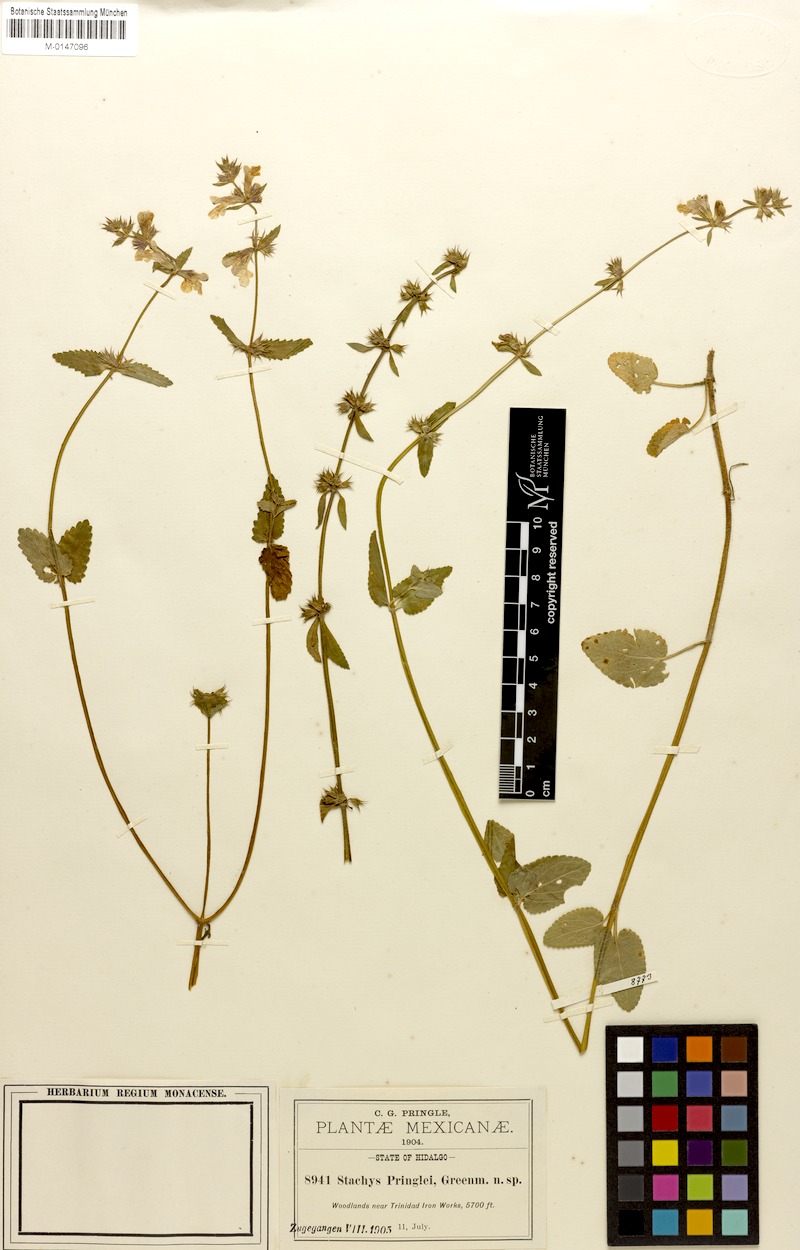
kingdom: Plantae
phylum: Tracheophyta
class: Magnoliopsida
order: Lamiales
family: Lamiaceae
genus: Stachys
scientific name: Stachys pringlei
